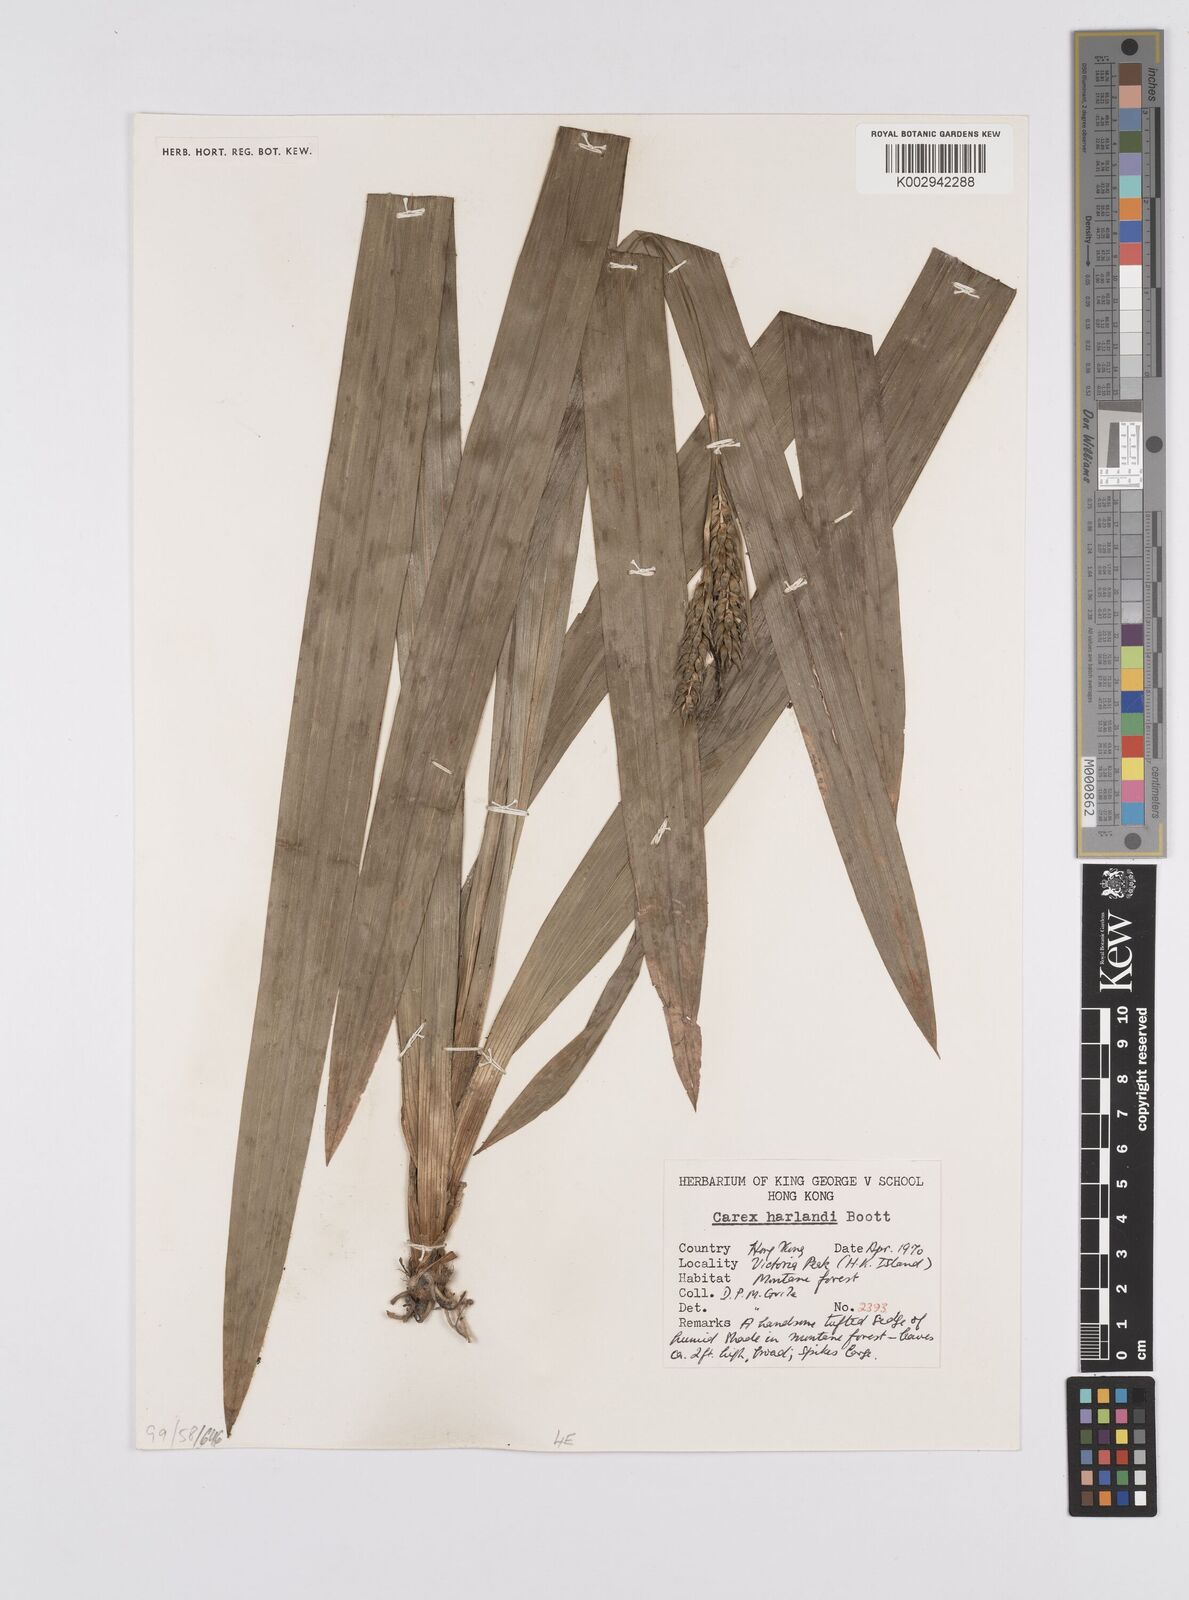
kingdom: Plantae
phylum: Tracheophyta
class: Liliopsida
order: Poales
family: Cyperaceae
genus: Carex
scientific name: Carex harlandii
